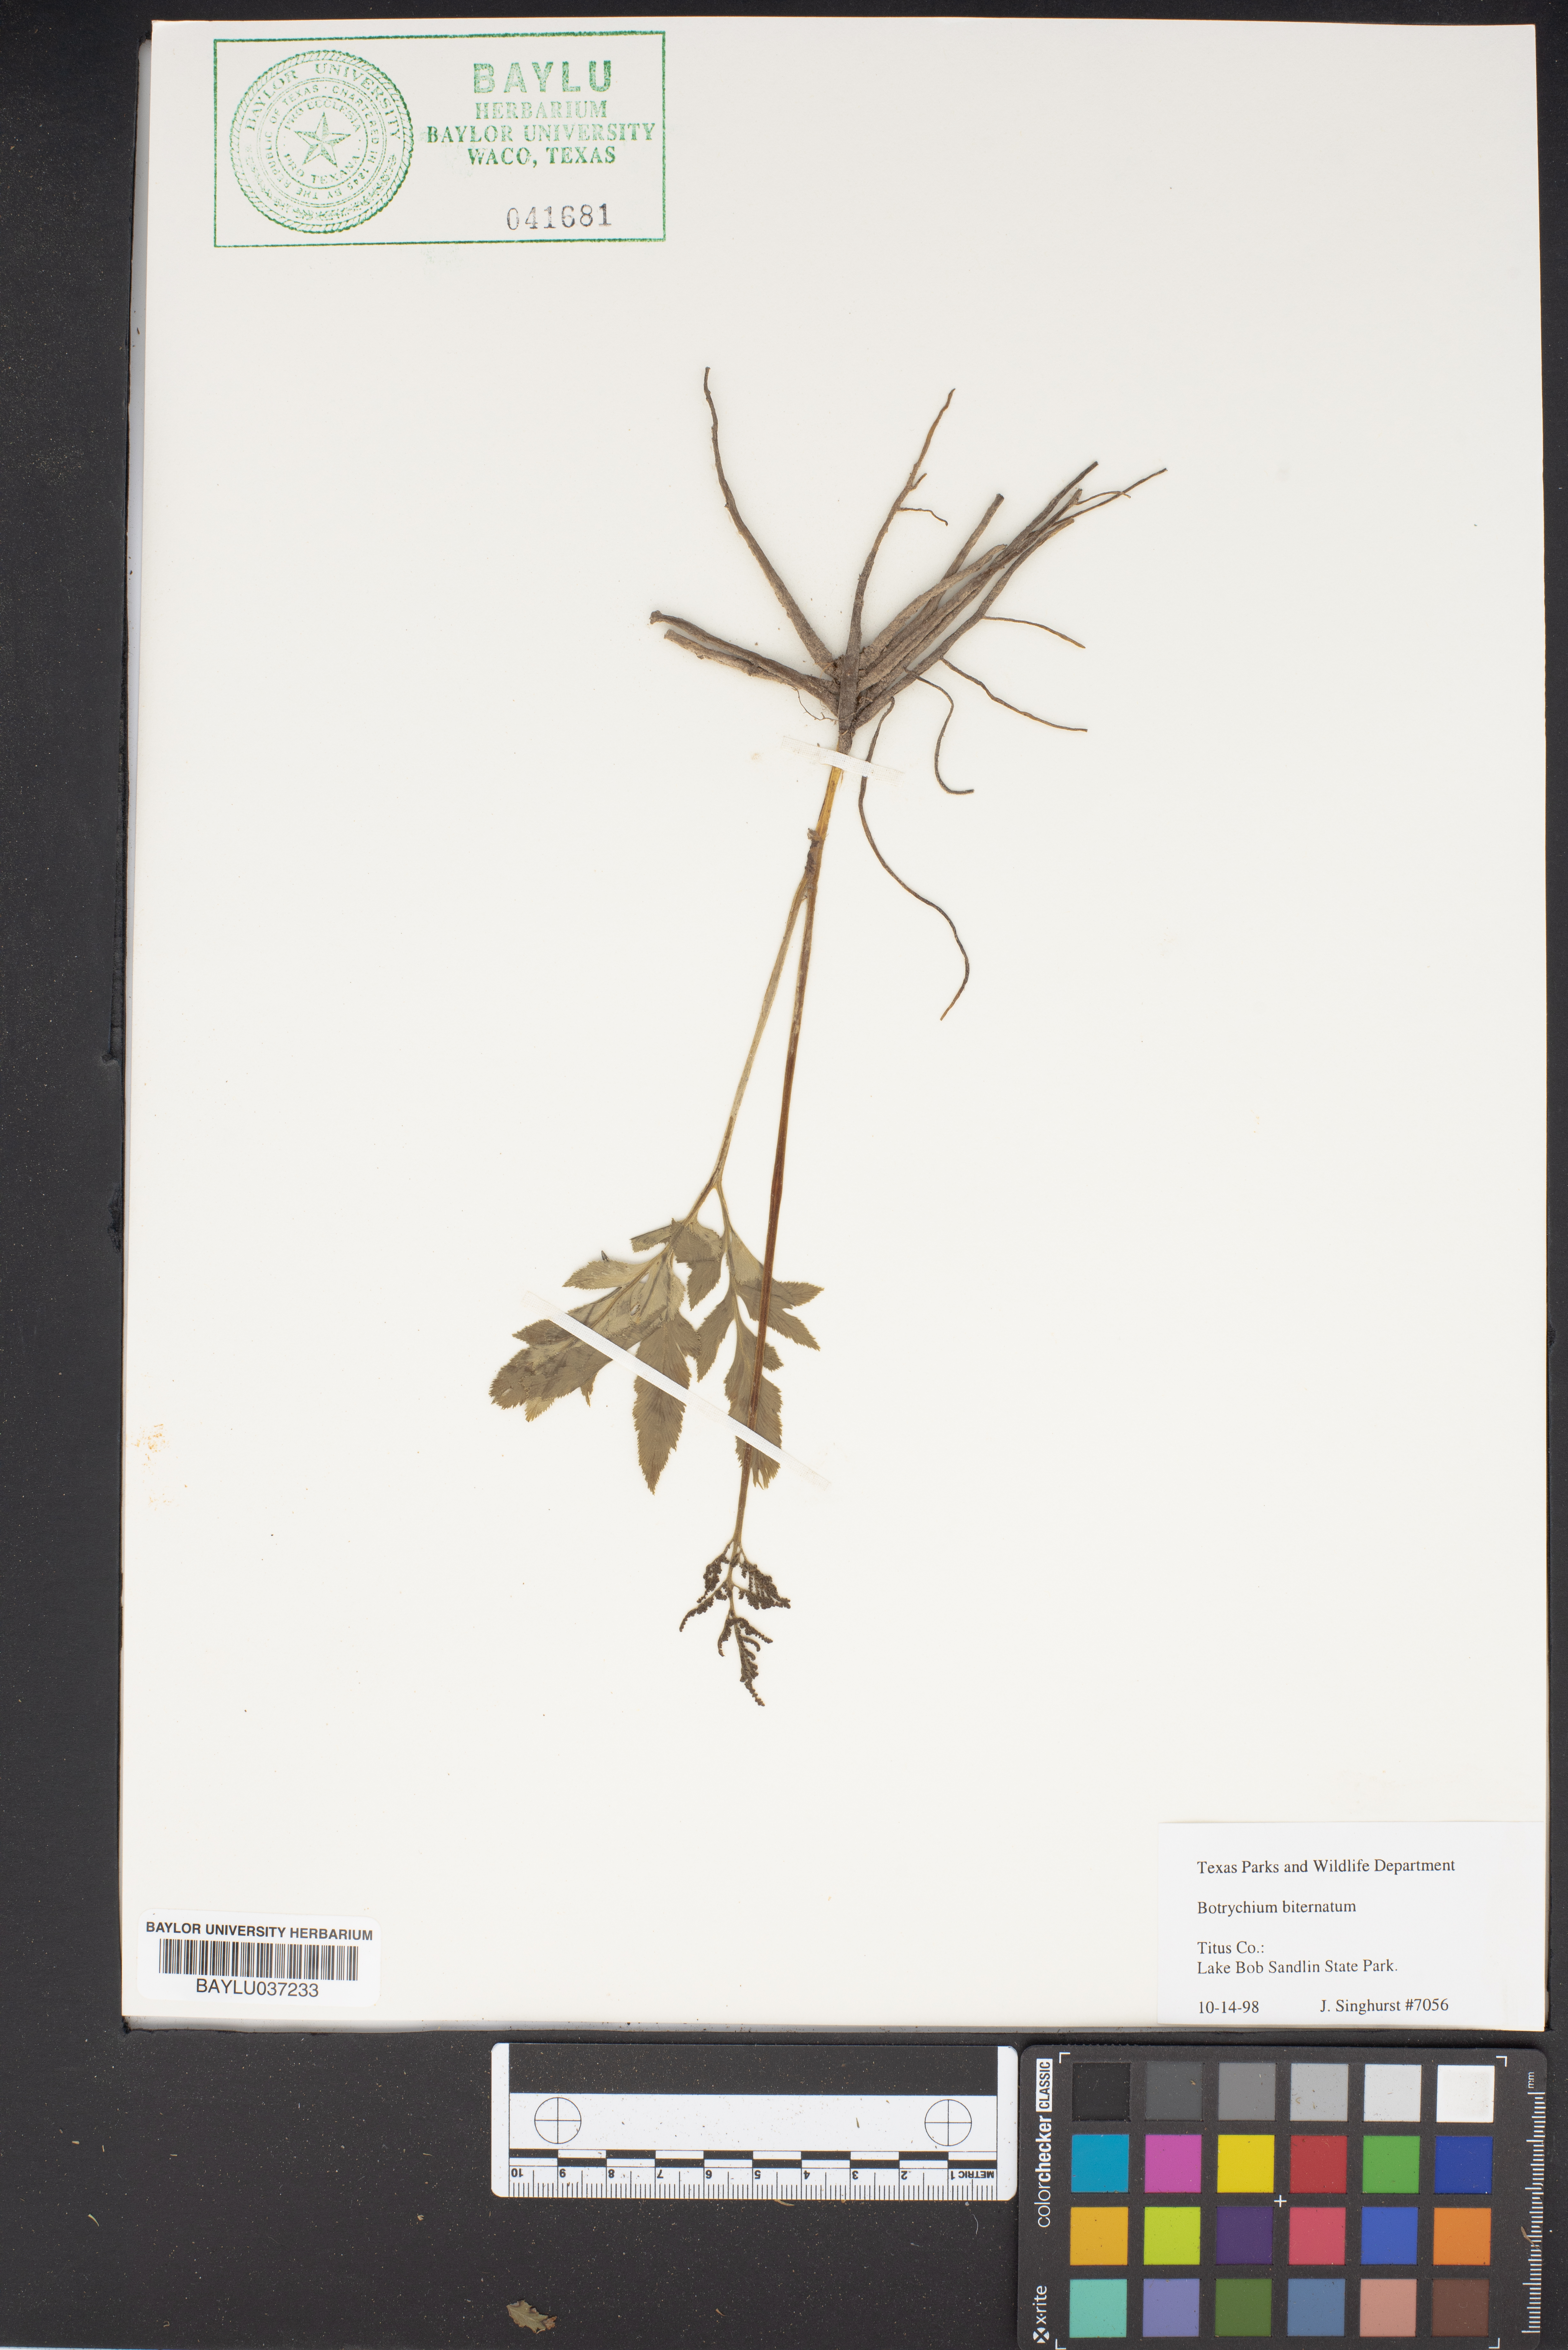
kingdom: Plantae
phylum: Tracheophyta
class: Polypodiopsida
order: Ophioglossales
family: Ophioglossaceae
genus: Sceptridium
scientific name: Sceptridium biternatum
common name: Sparse-lobed grapefern
